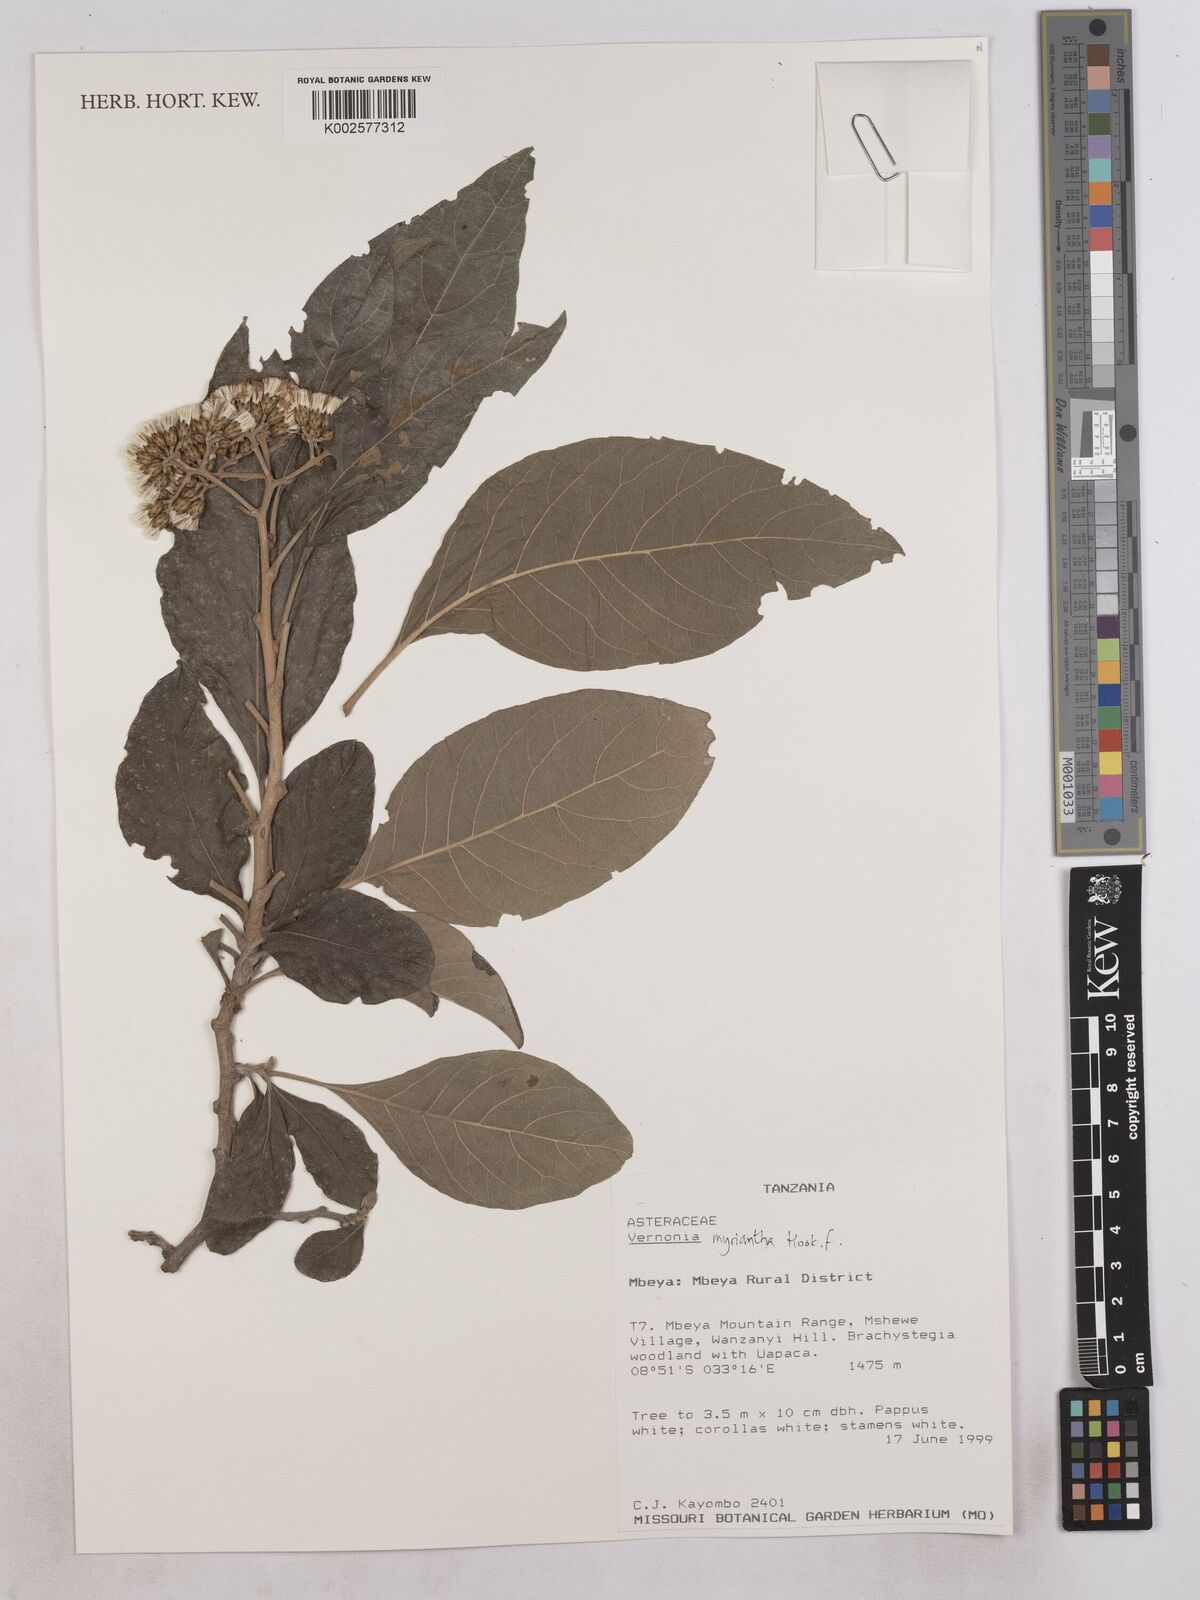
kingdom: Plantae
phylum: Tracheophyta
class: Magnoliopsida
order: Asterales
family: Asteraceae
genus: Gymnanthemum
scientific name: Gymnanthemum myrianthum
